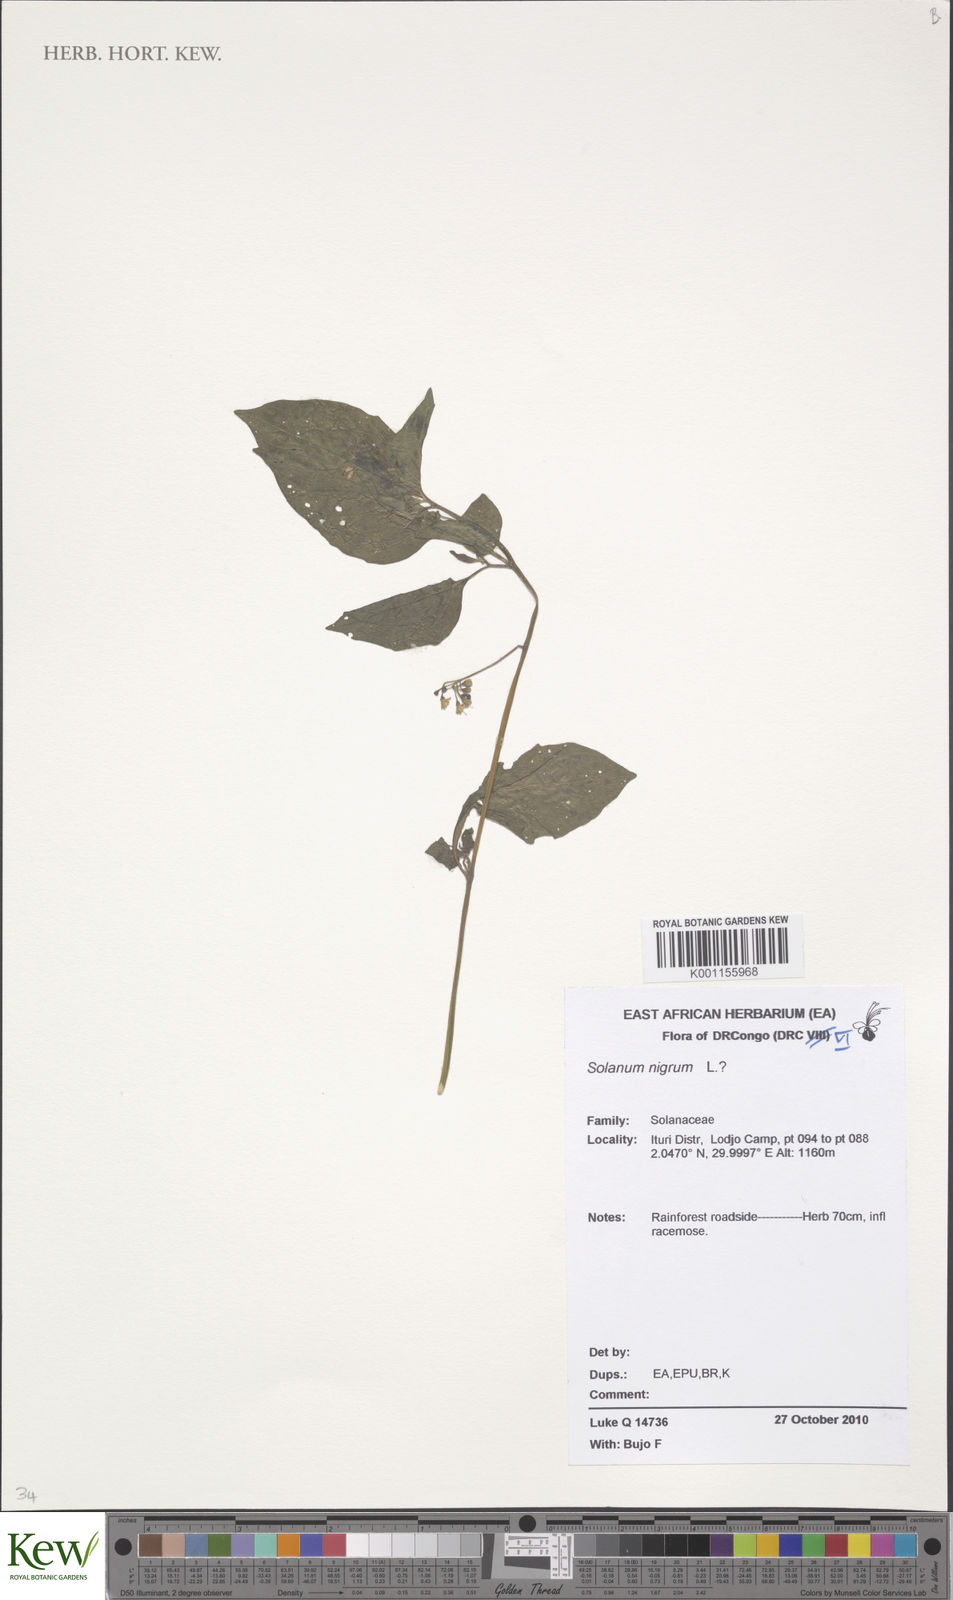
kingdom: Plantae
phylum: Tracheophyta
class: Magnoliopsida
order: Solanales
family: Solanaceae
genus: Solanum
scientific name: Solanum tarderemotum
